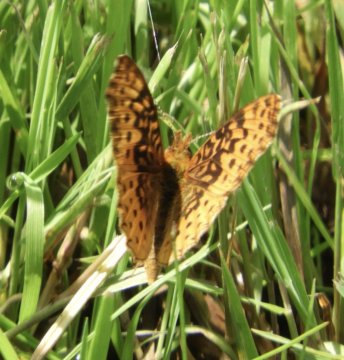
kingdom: Animalia
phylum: Arthropoda
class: Insecta
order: Lepidoptera
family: Nymphalidae
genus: Clossiana
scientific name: Clossiana toddi
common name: Meadow Fritillary
